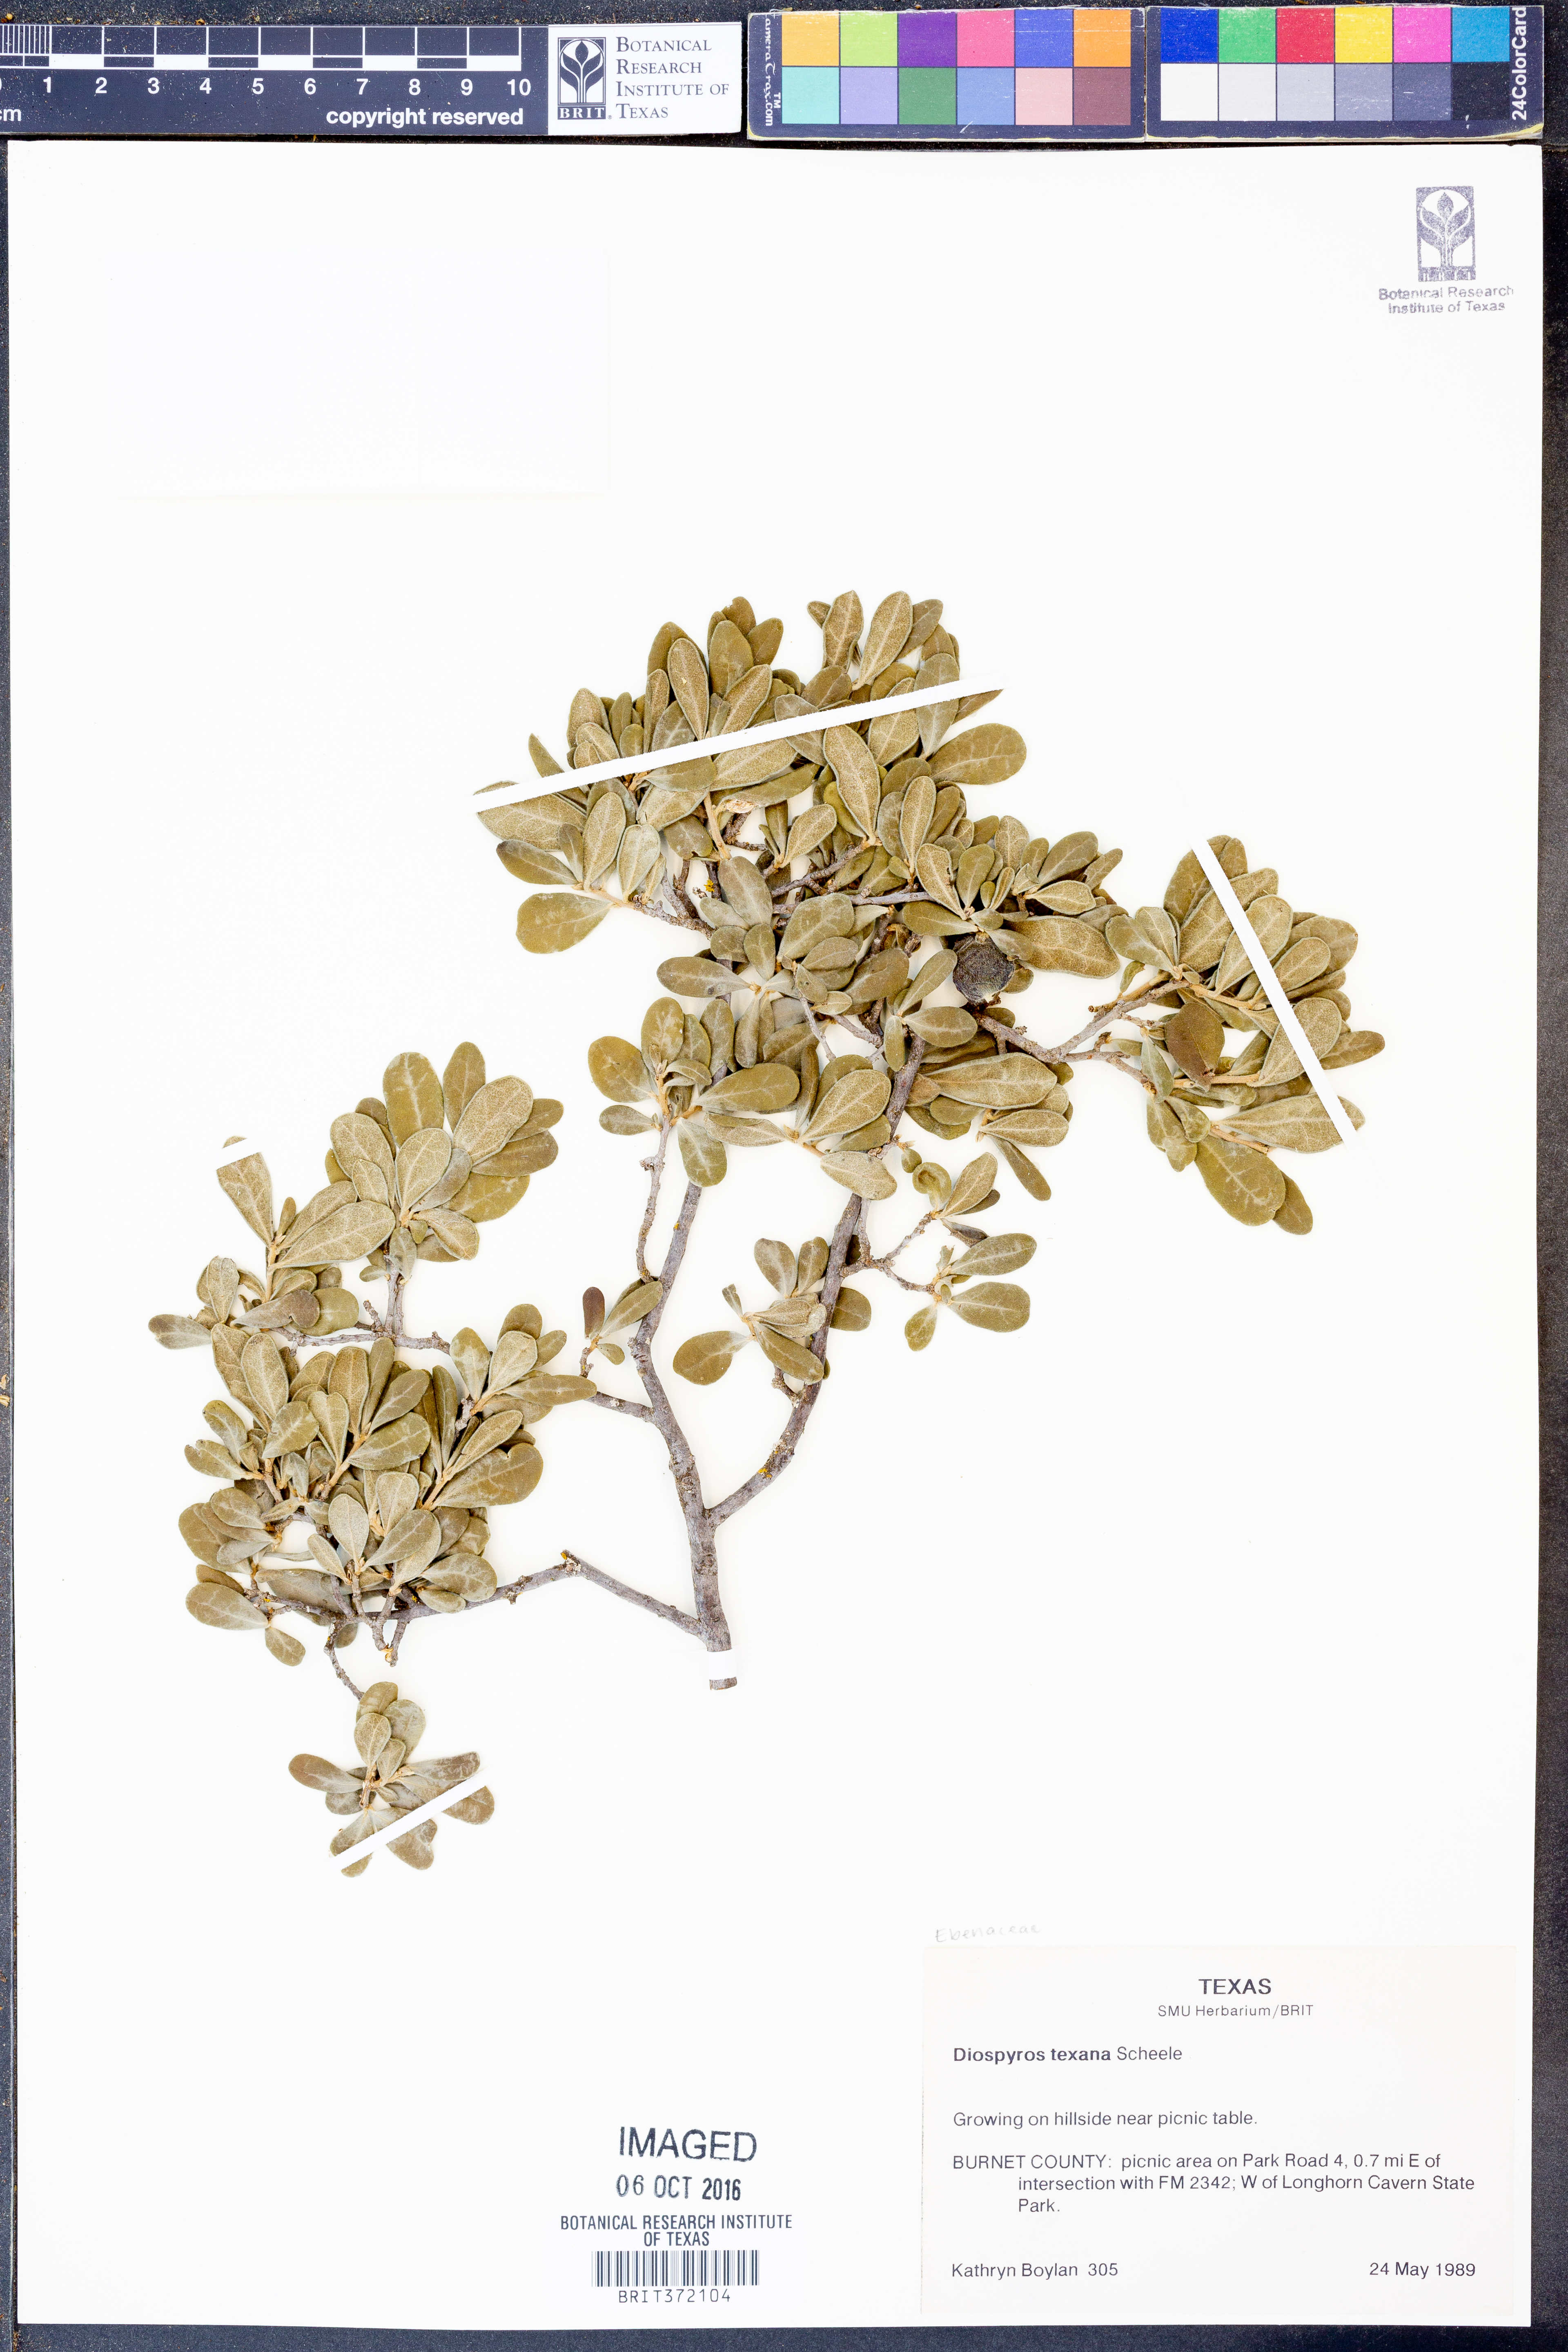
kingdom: Plantae
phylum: Tracheophyta
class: Magnoliopsida
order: Ericales
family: Ebenaceae
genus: Diospyros
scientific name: Diospyros texana
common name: Texas persimmon
